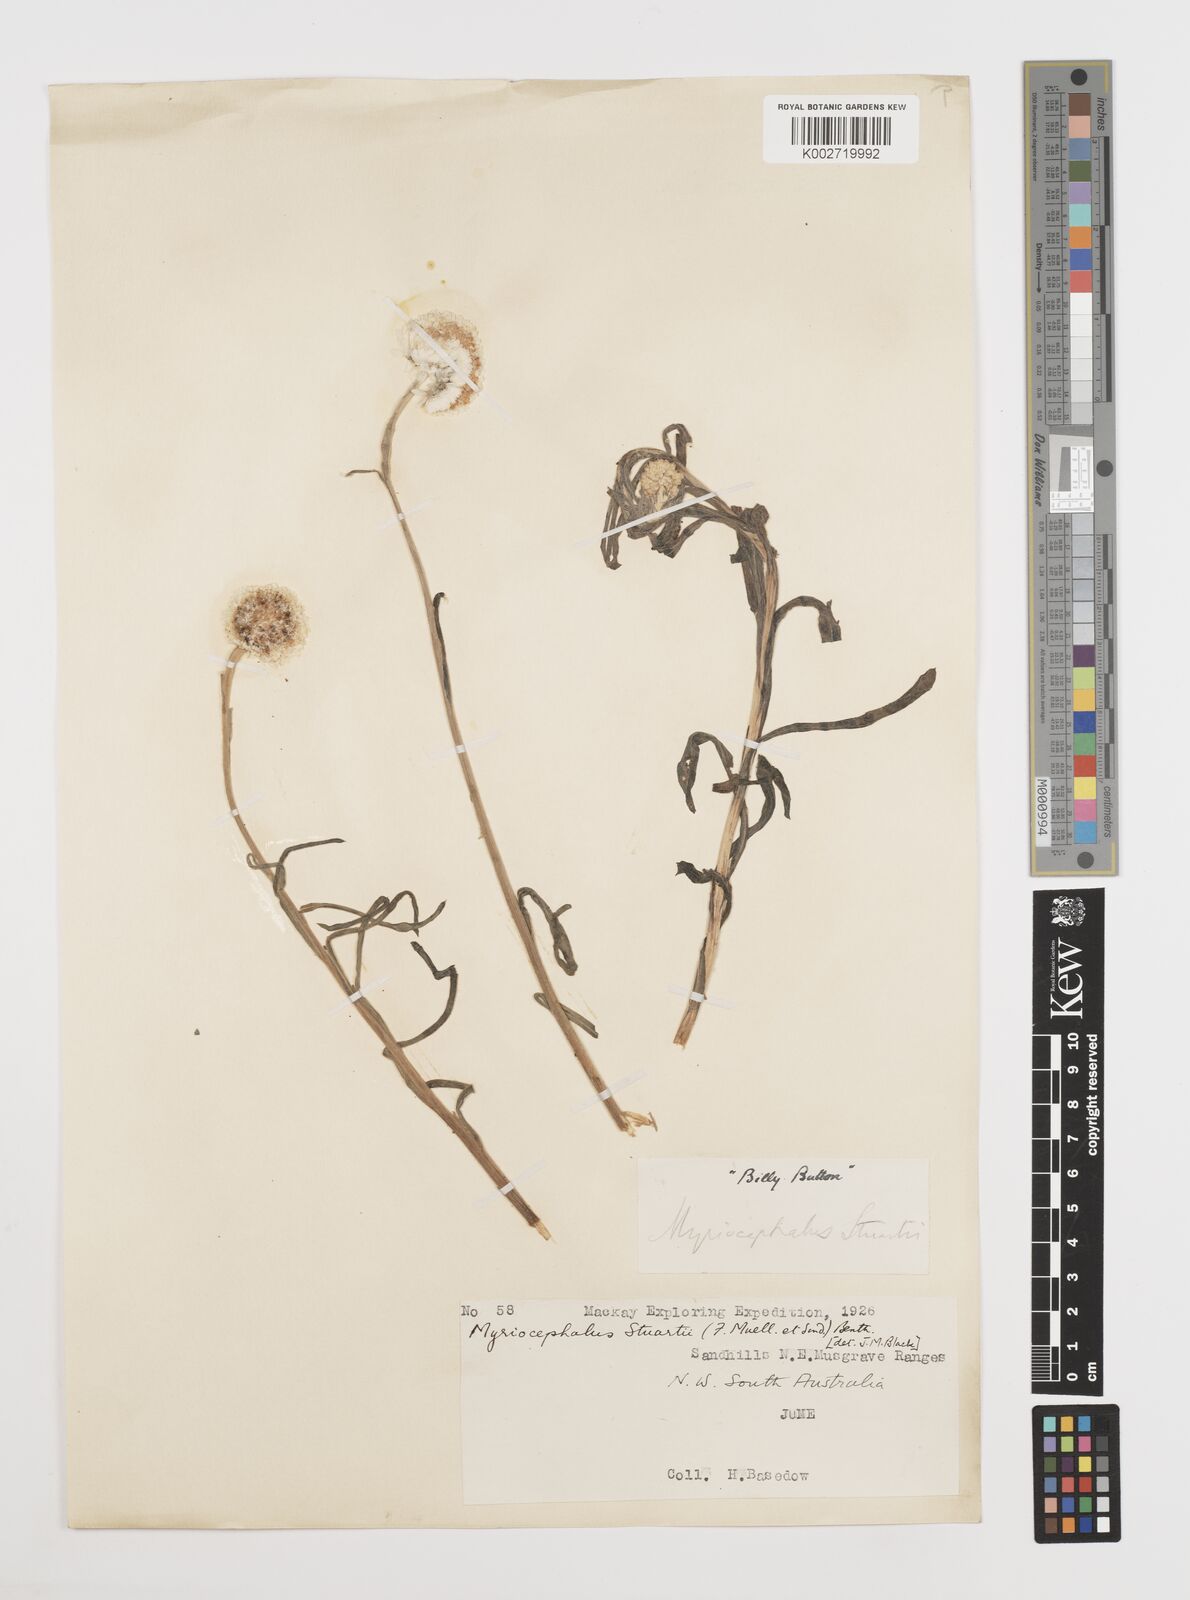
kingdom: Plantae
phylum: Tracheophyta
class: Magnoliopsida
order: Asterales
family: Asteraceae
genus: Polycalymma
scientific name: Polycalymma stuartii
